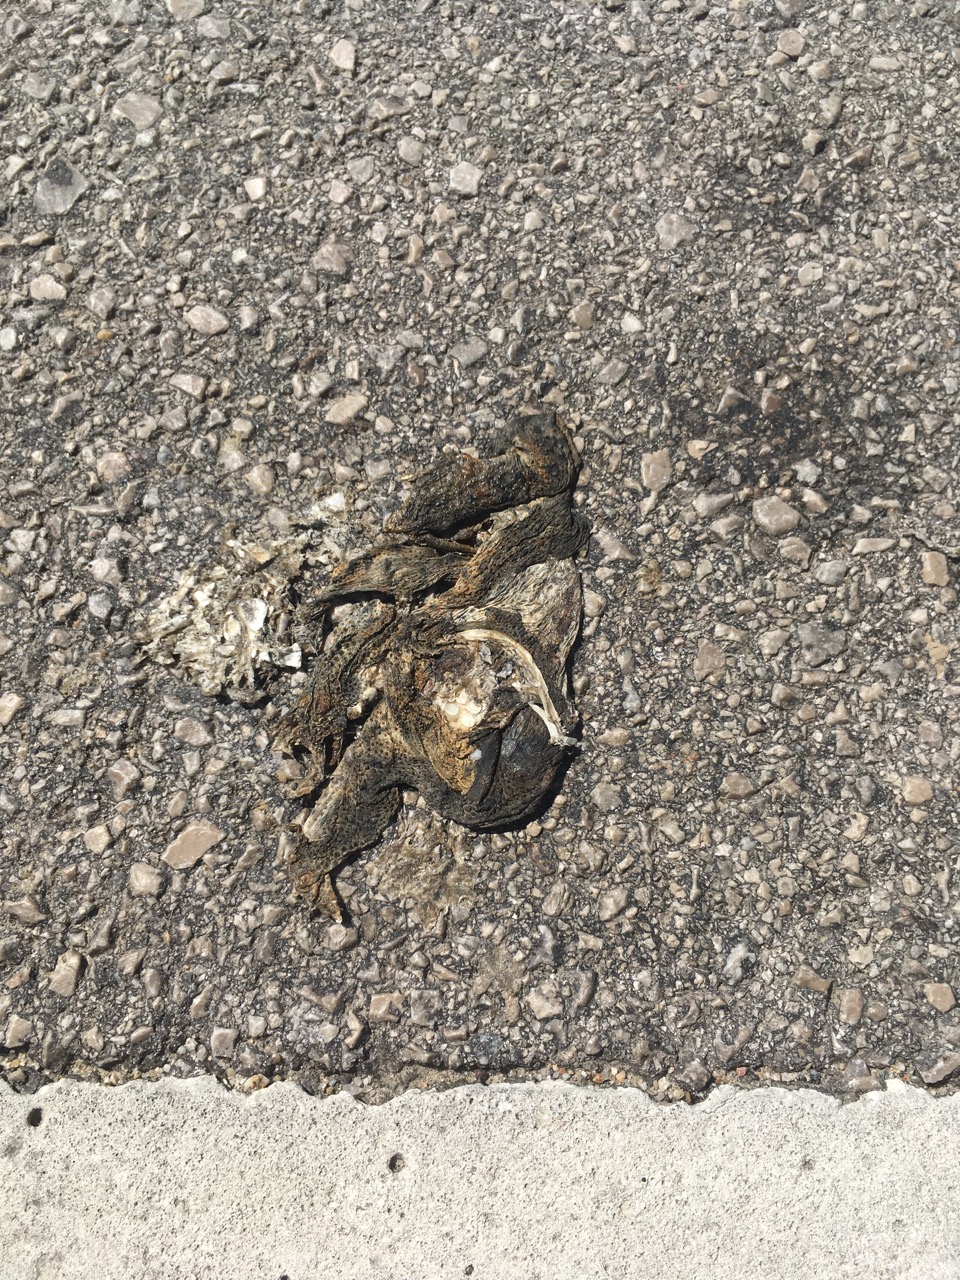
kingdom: Animalia
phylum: Chordata
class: Amphibia
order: Anura
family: Bufonidae
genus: Bufo
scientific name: Bufo bufo
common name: Common toad
